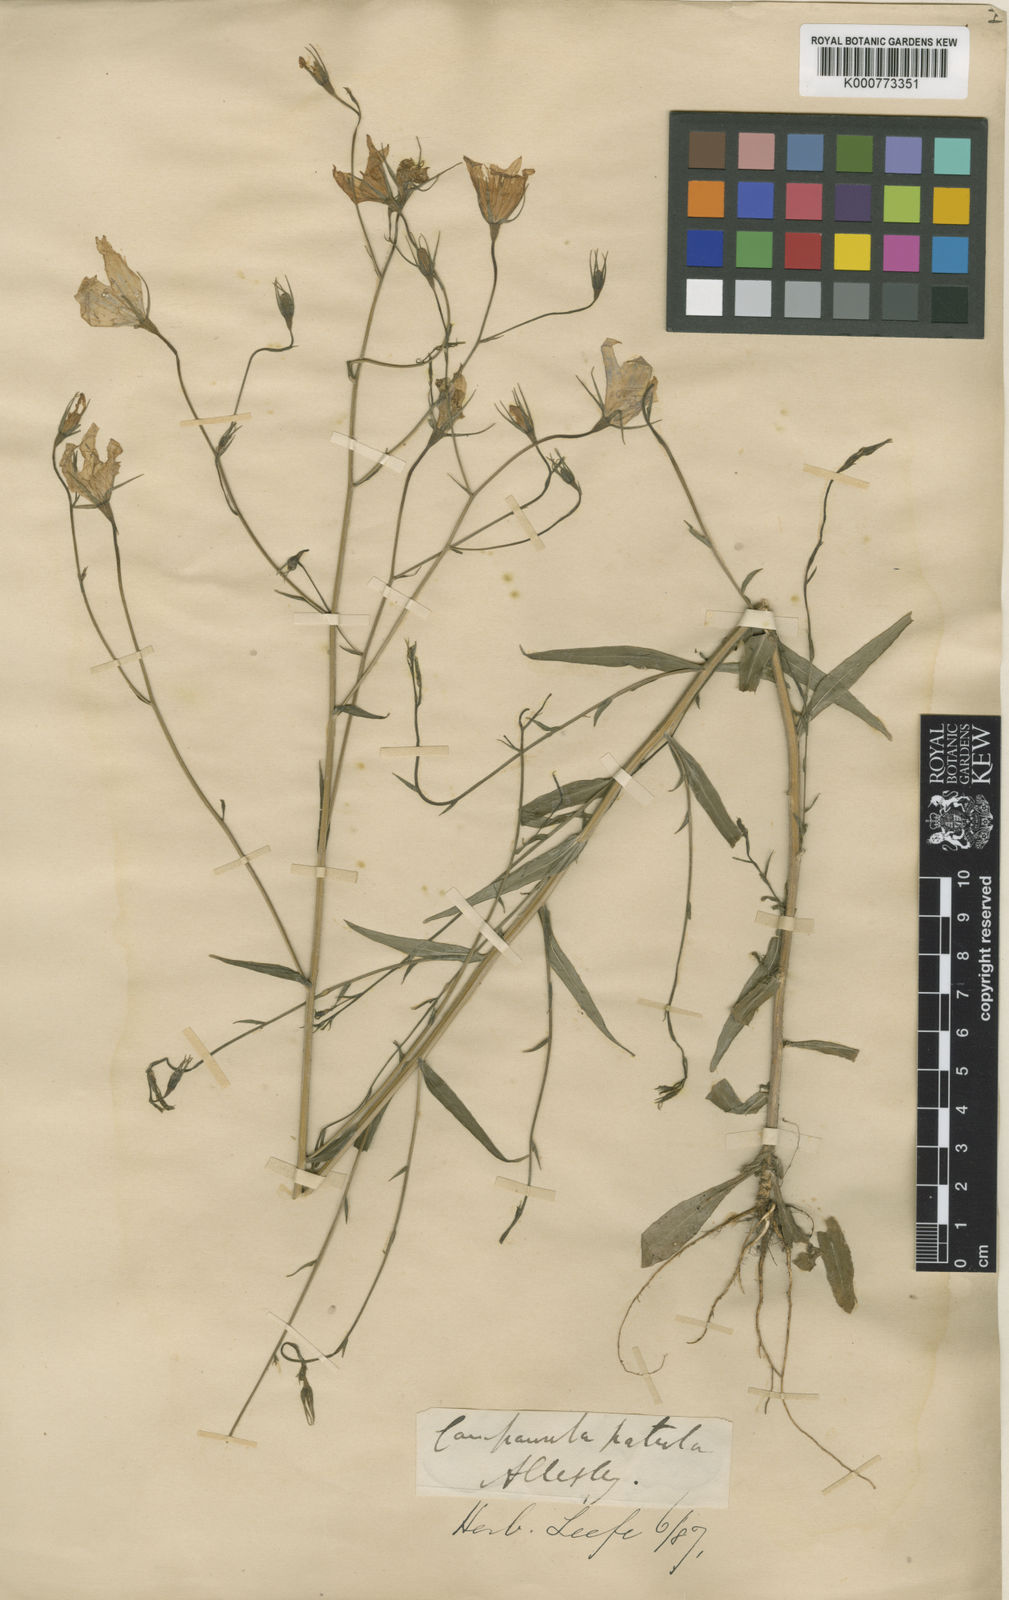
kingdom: Plantae
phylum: Tracheophyta
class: Magnoliopsida
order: Asterales
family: Campanulaceae
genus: Campanula
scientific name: Campanula patula
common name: Spreading bellflower
